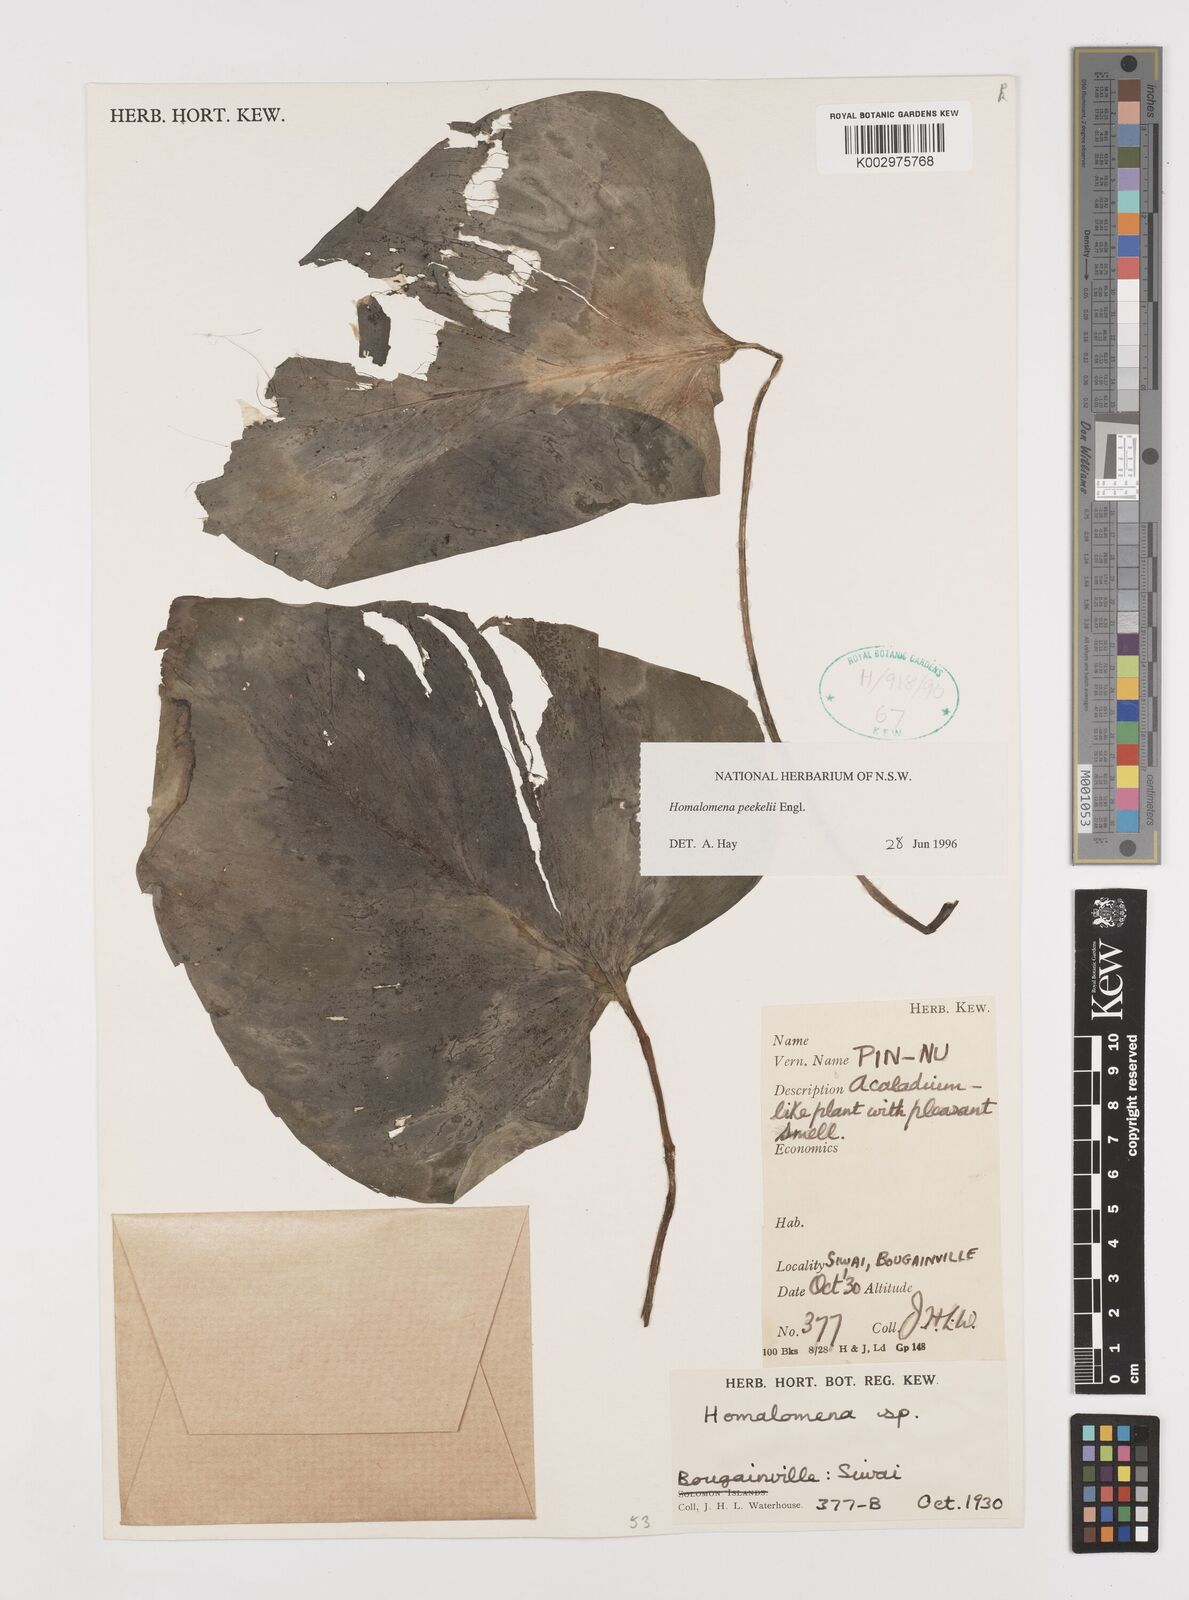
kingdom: Plantae
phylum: Tracheophyta
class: Liliopsida
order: Alismatales
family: Araceae
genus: Homalomena
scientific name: Homalomena peekelii
